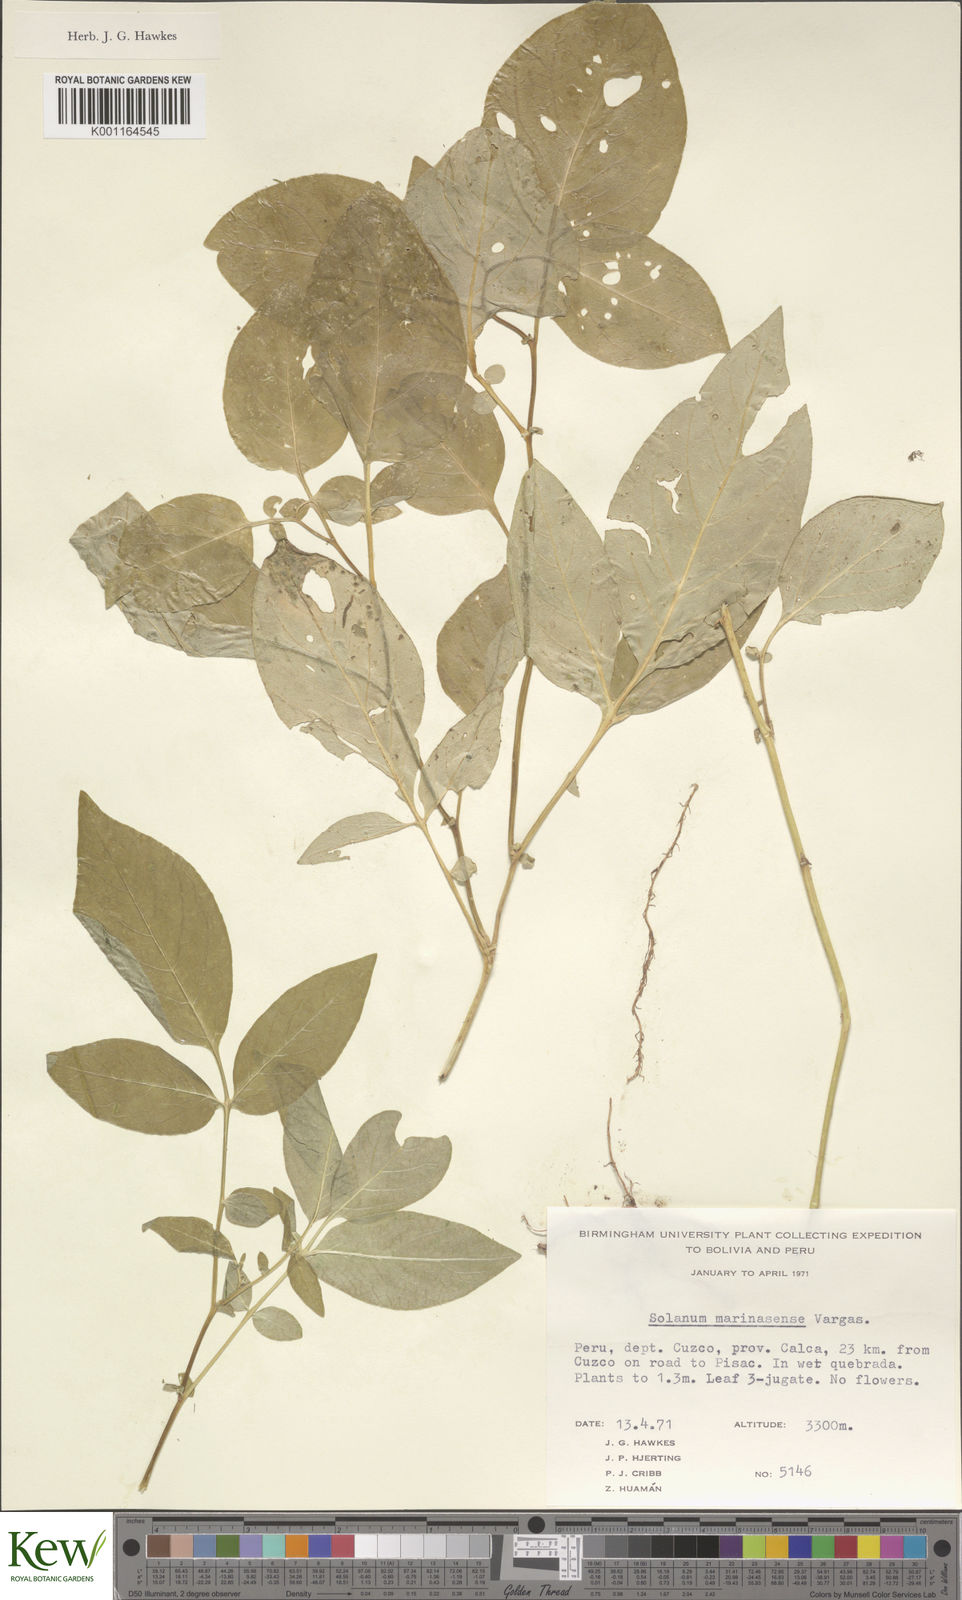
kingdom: Plantae
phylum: Tracheophyta
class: Magnoliopsida
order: Solanales
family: Solanaceae
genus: Solanum
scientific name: Solanum candolleanum
